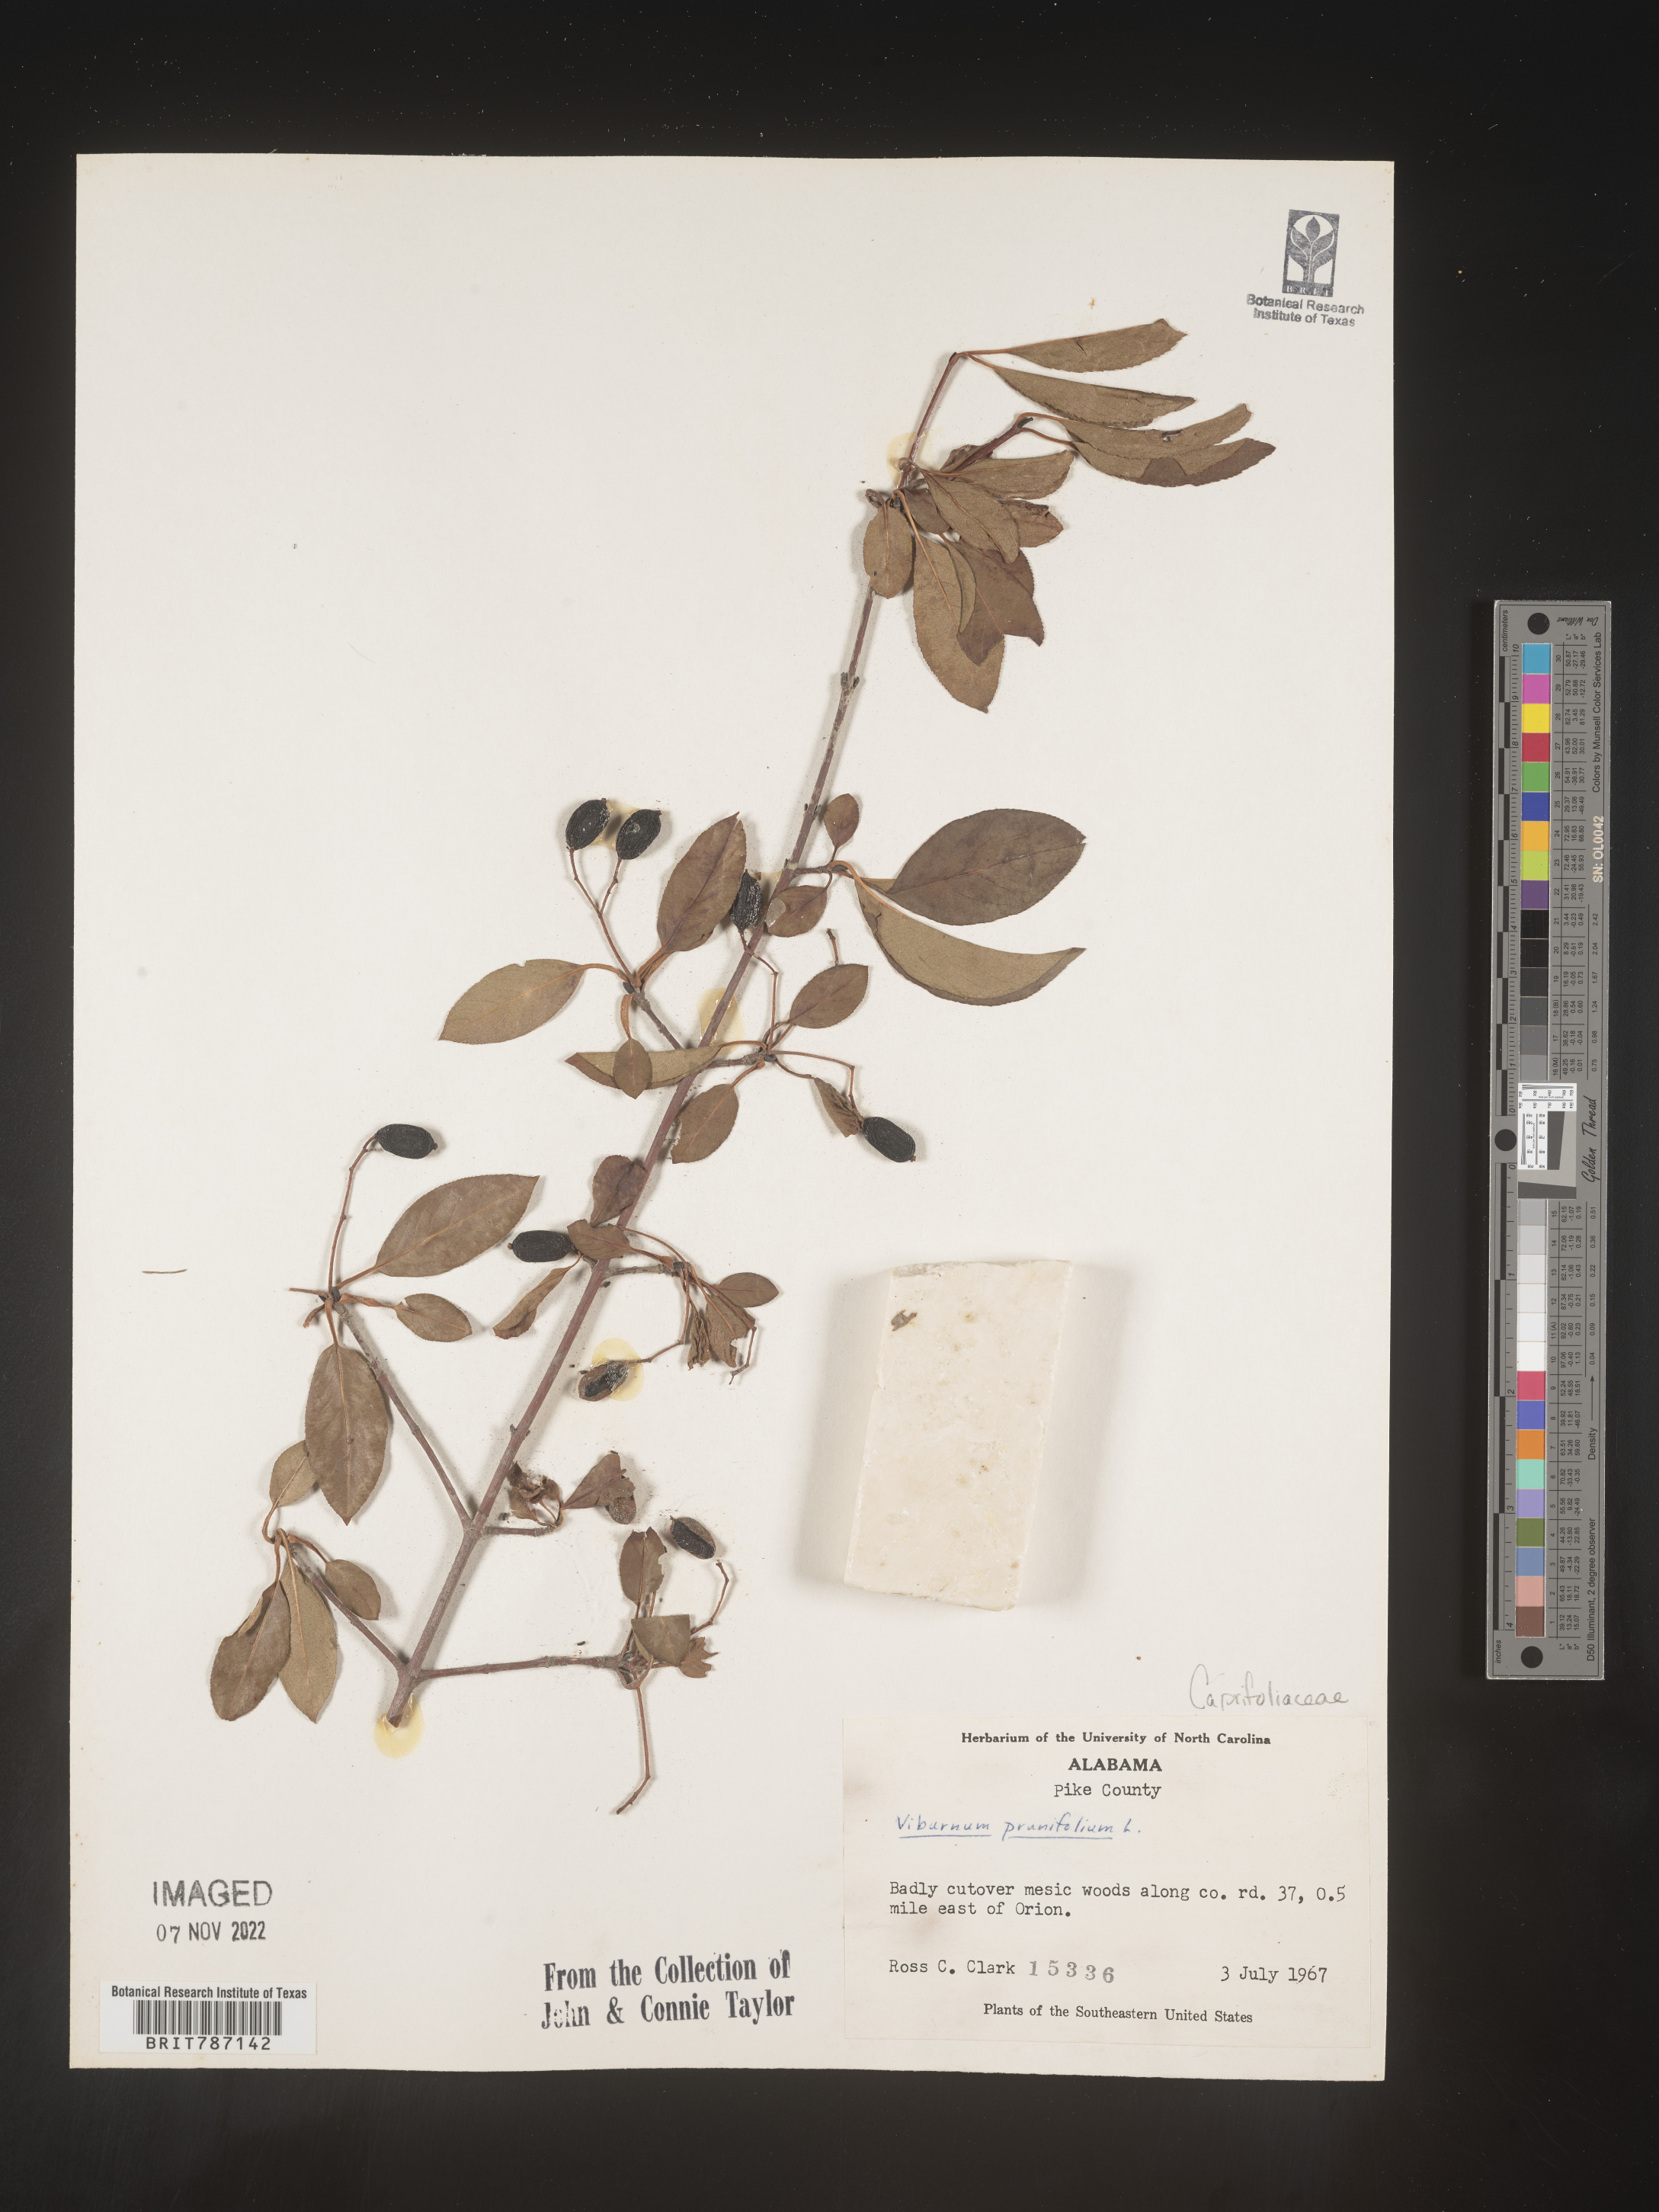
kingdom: Plantae
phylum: Tracheophyta
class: Magnoliopsida
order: Dipsacales
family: Viburnaceae
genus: Viburnum
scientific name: Viburnum prunifolium
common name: Black haw
